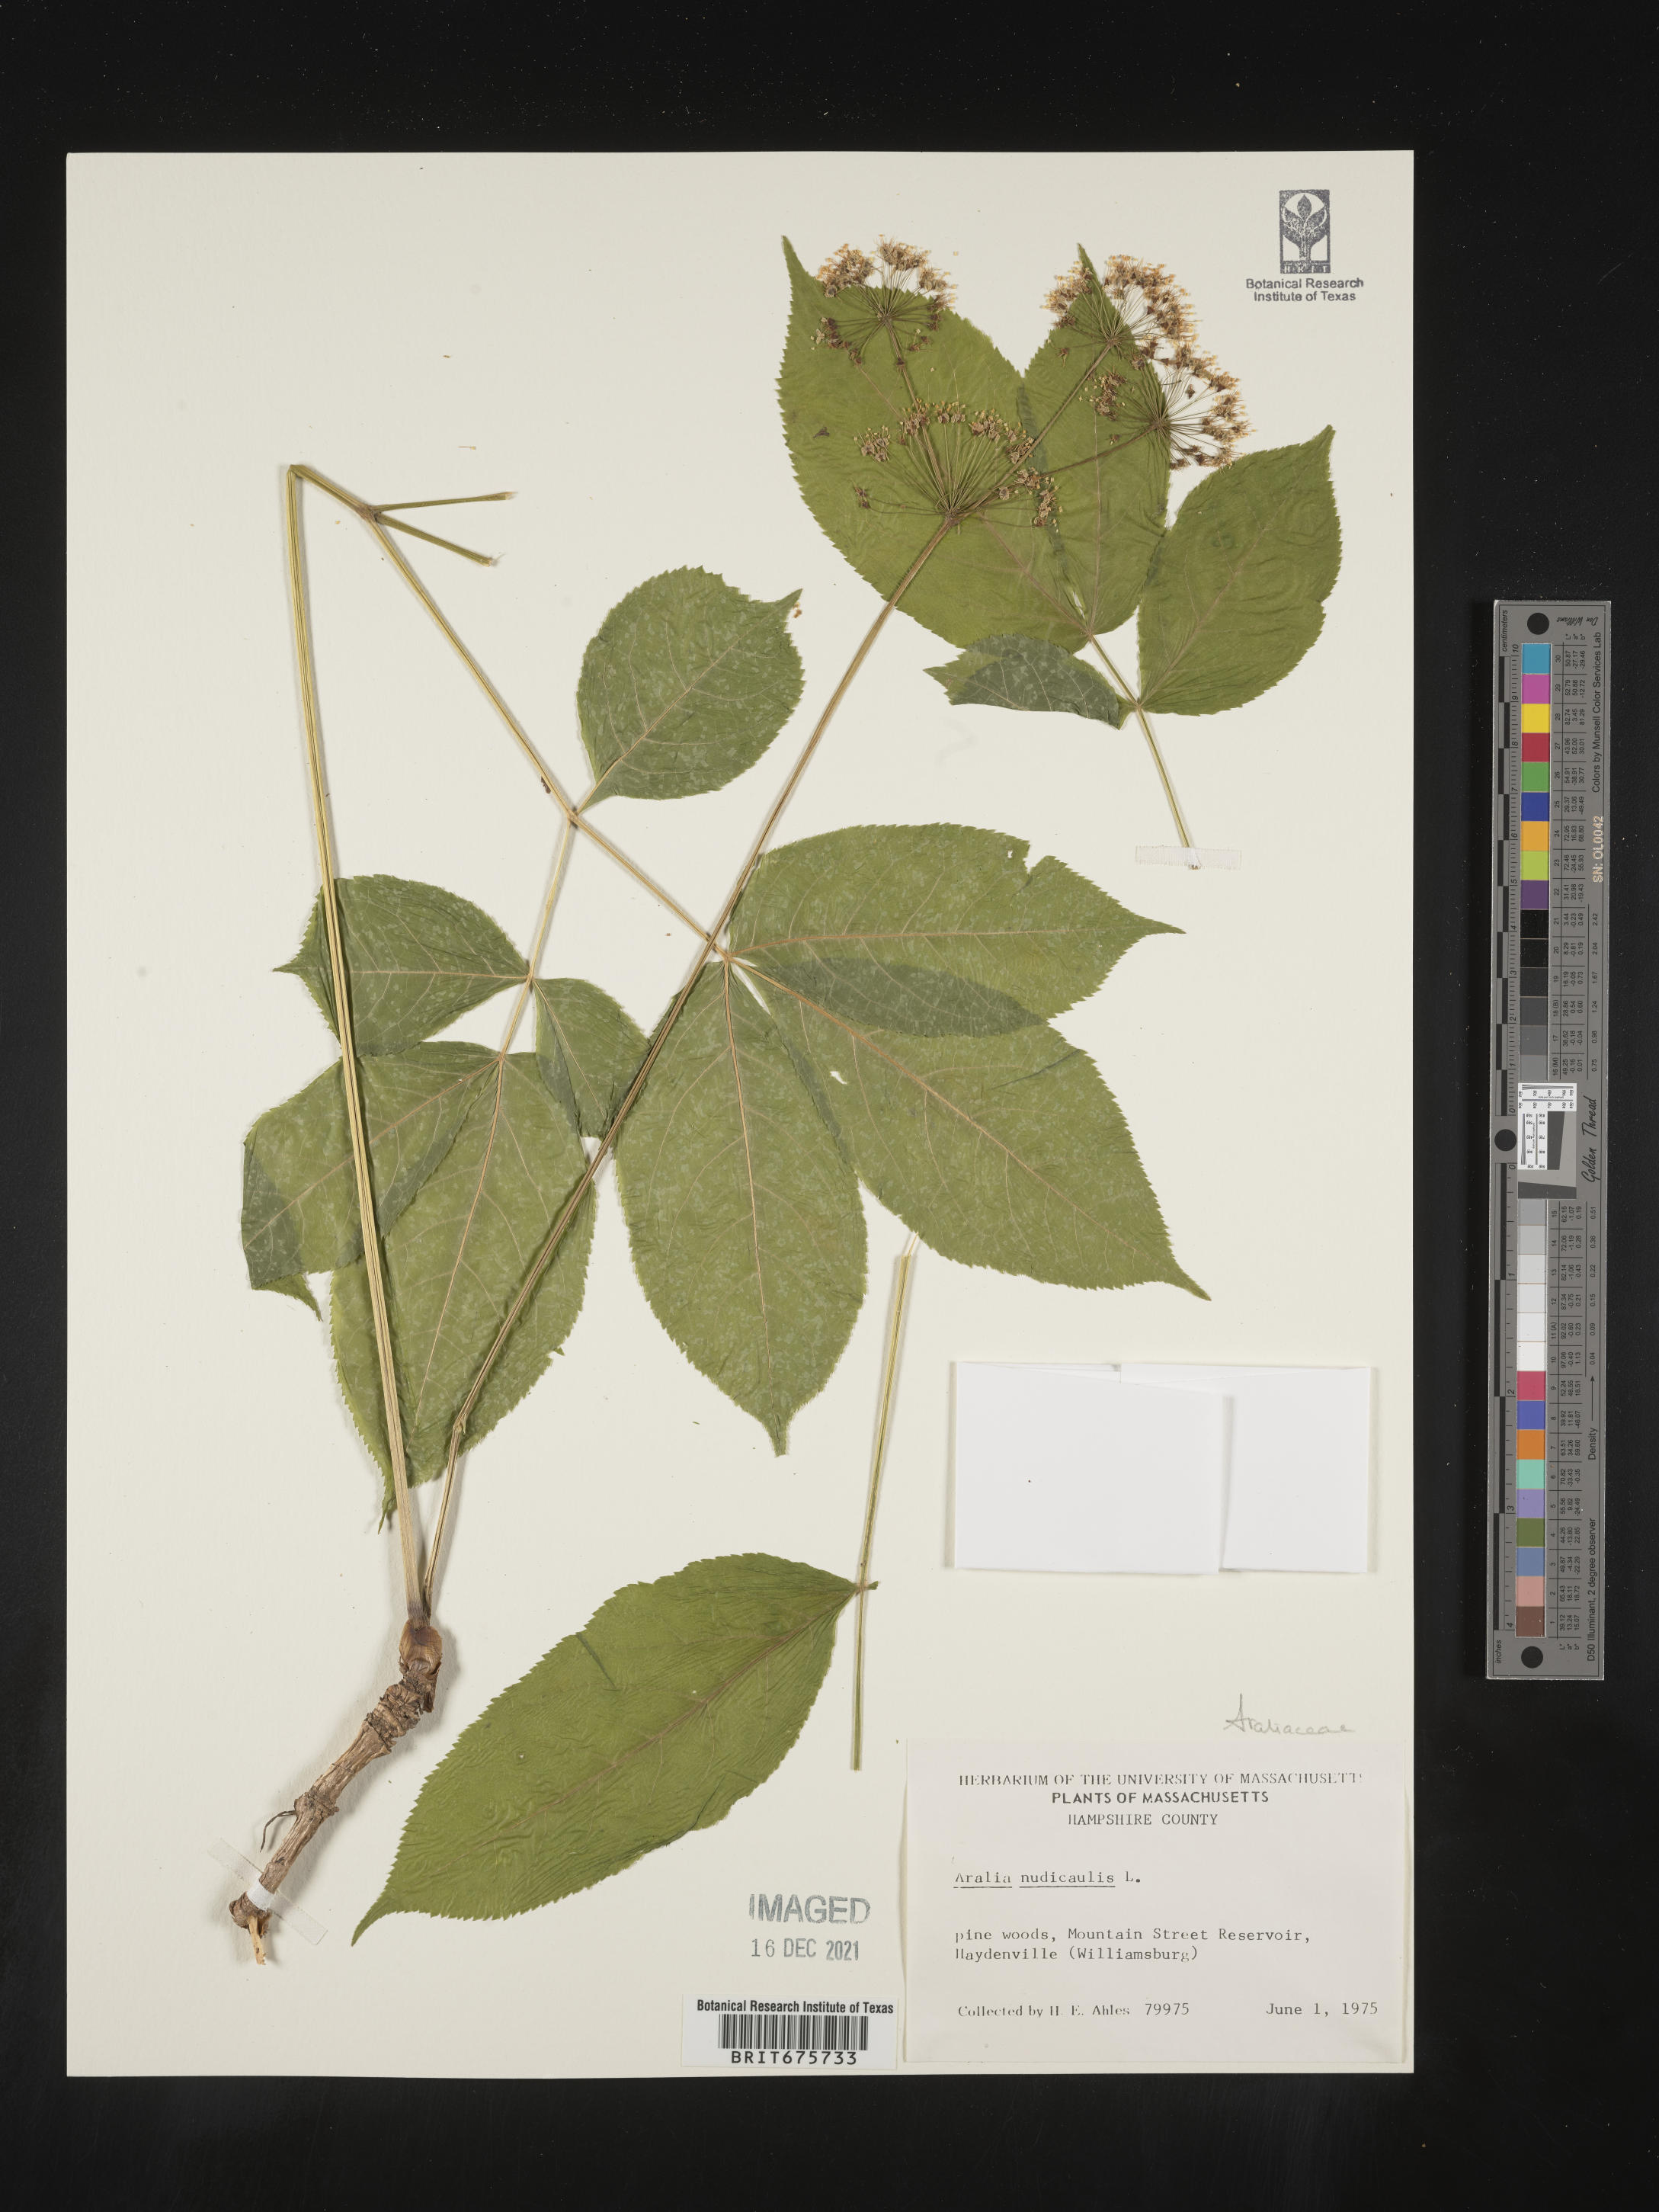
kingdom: Plantae
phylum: Tracheophyta
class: Magnoliopsida
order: Apiales
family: Araliaceae
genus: Aralia
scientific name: Aralia nudicaulis
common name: Wild sarsaparilla
